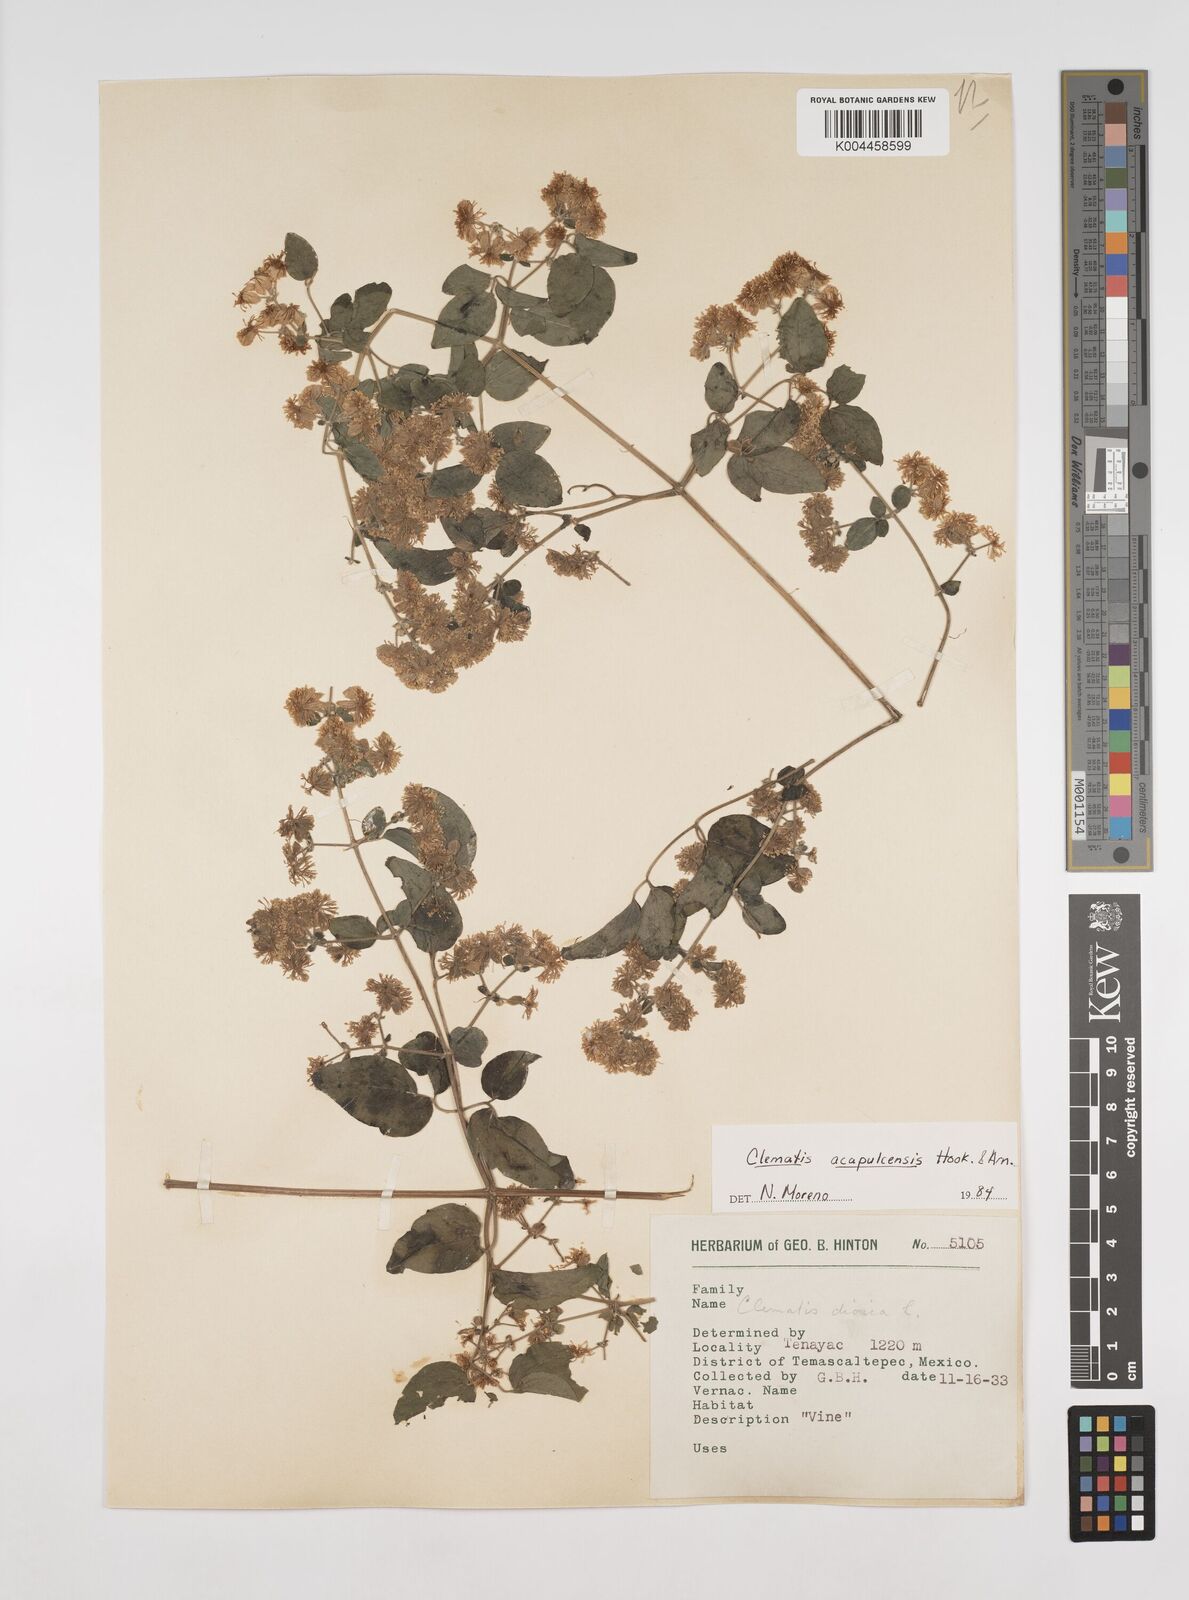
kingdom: Plantae
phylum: Tracheophyta
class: Magnoliopsida
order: Ranunculales
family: Ranunculaceae
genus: Clematis
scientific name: Clematis acapulcensis
